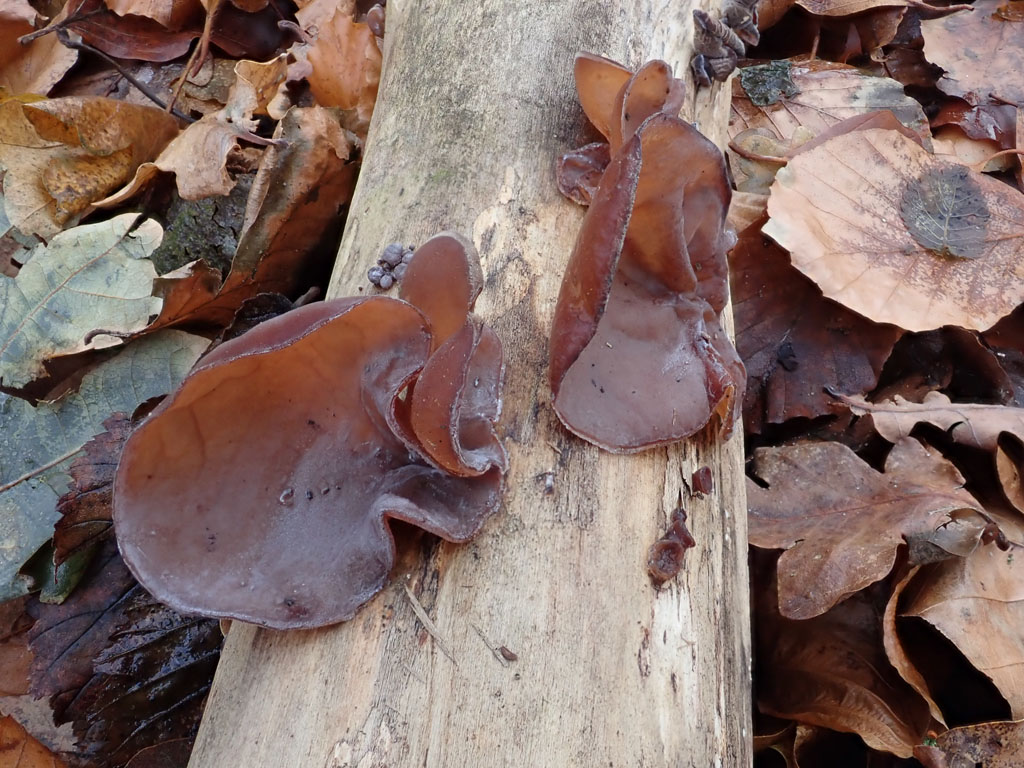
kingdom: Fungi
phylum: Basidiomycota
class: Agaricomycetes
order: Auriculariales
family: Auriculariaceae
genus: Auricularia
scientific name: Auricularia auricula-judae
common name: almindelig judasøre
